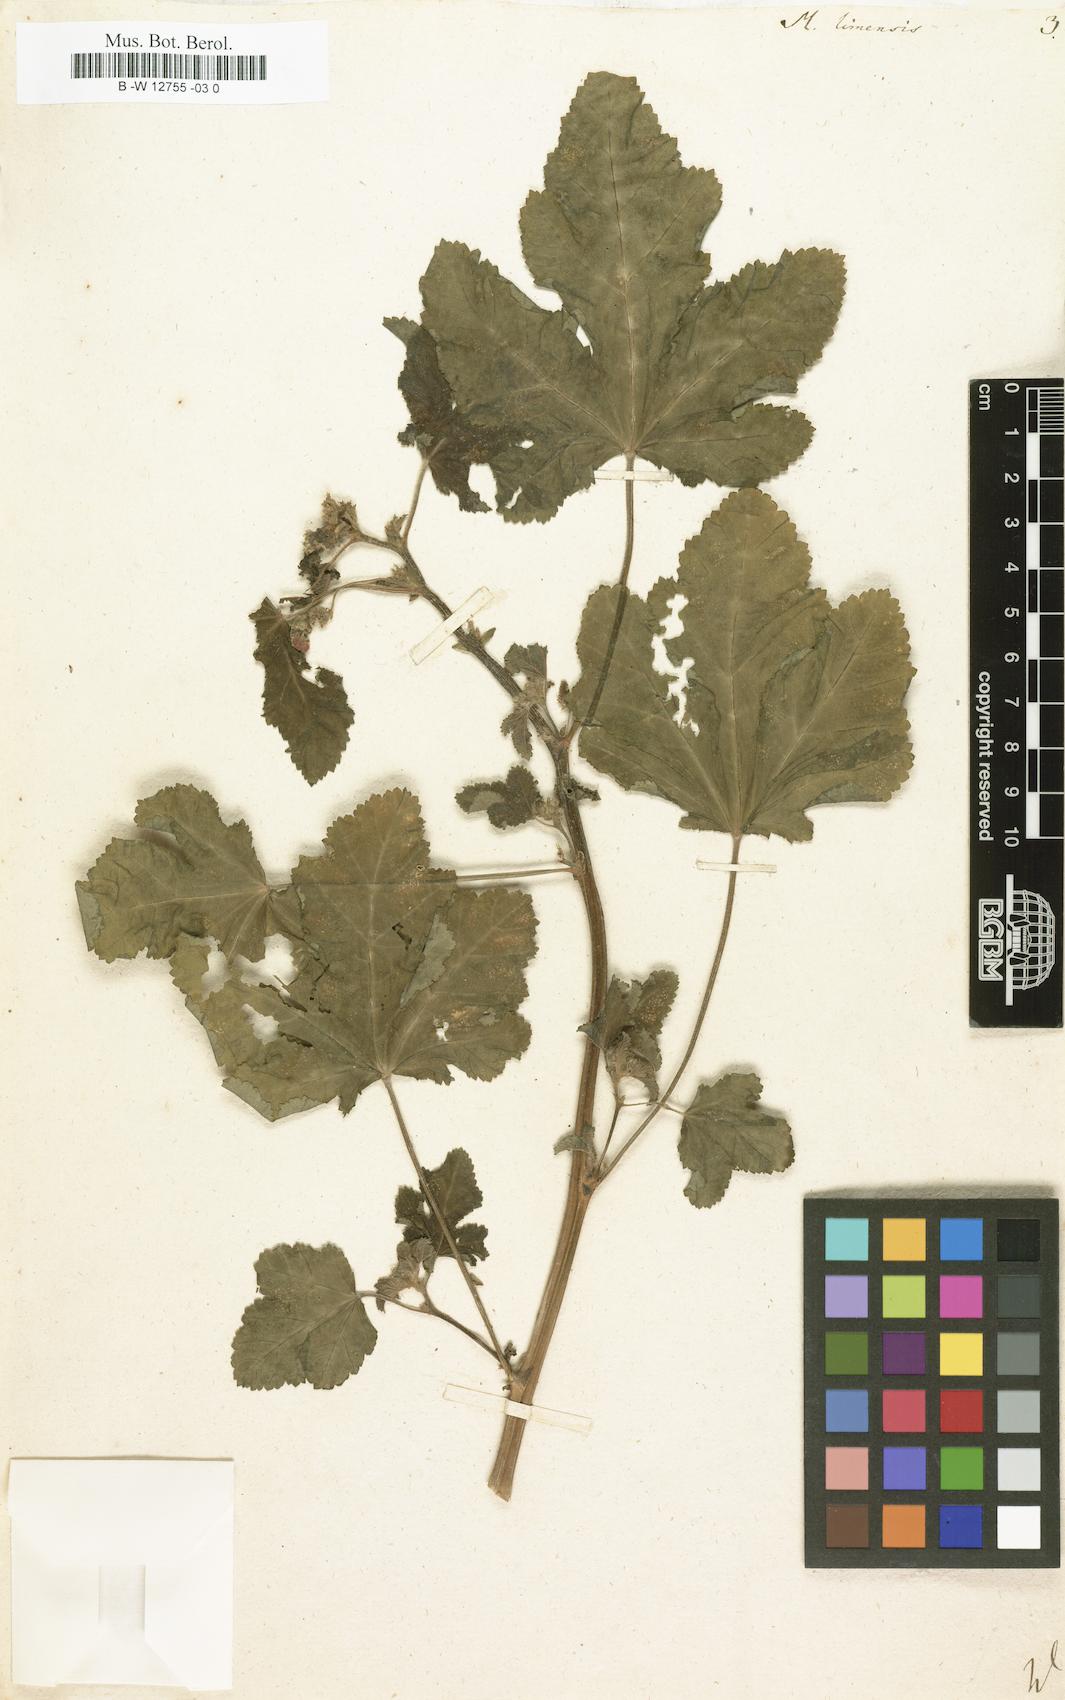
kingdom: Plantae
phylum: Tracheophyta
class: Magnoliopsida
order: Malvales
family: Malvaceae
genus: Fuertesimalva
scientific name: Fuertesimalva limensis
